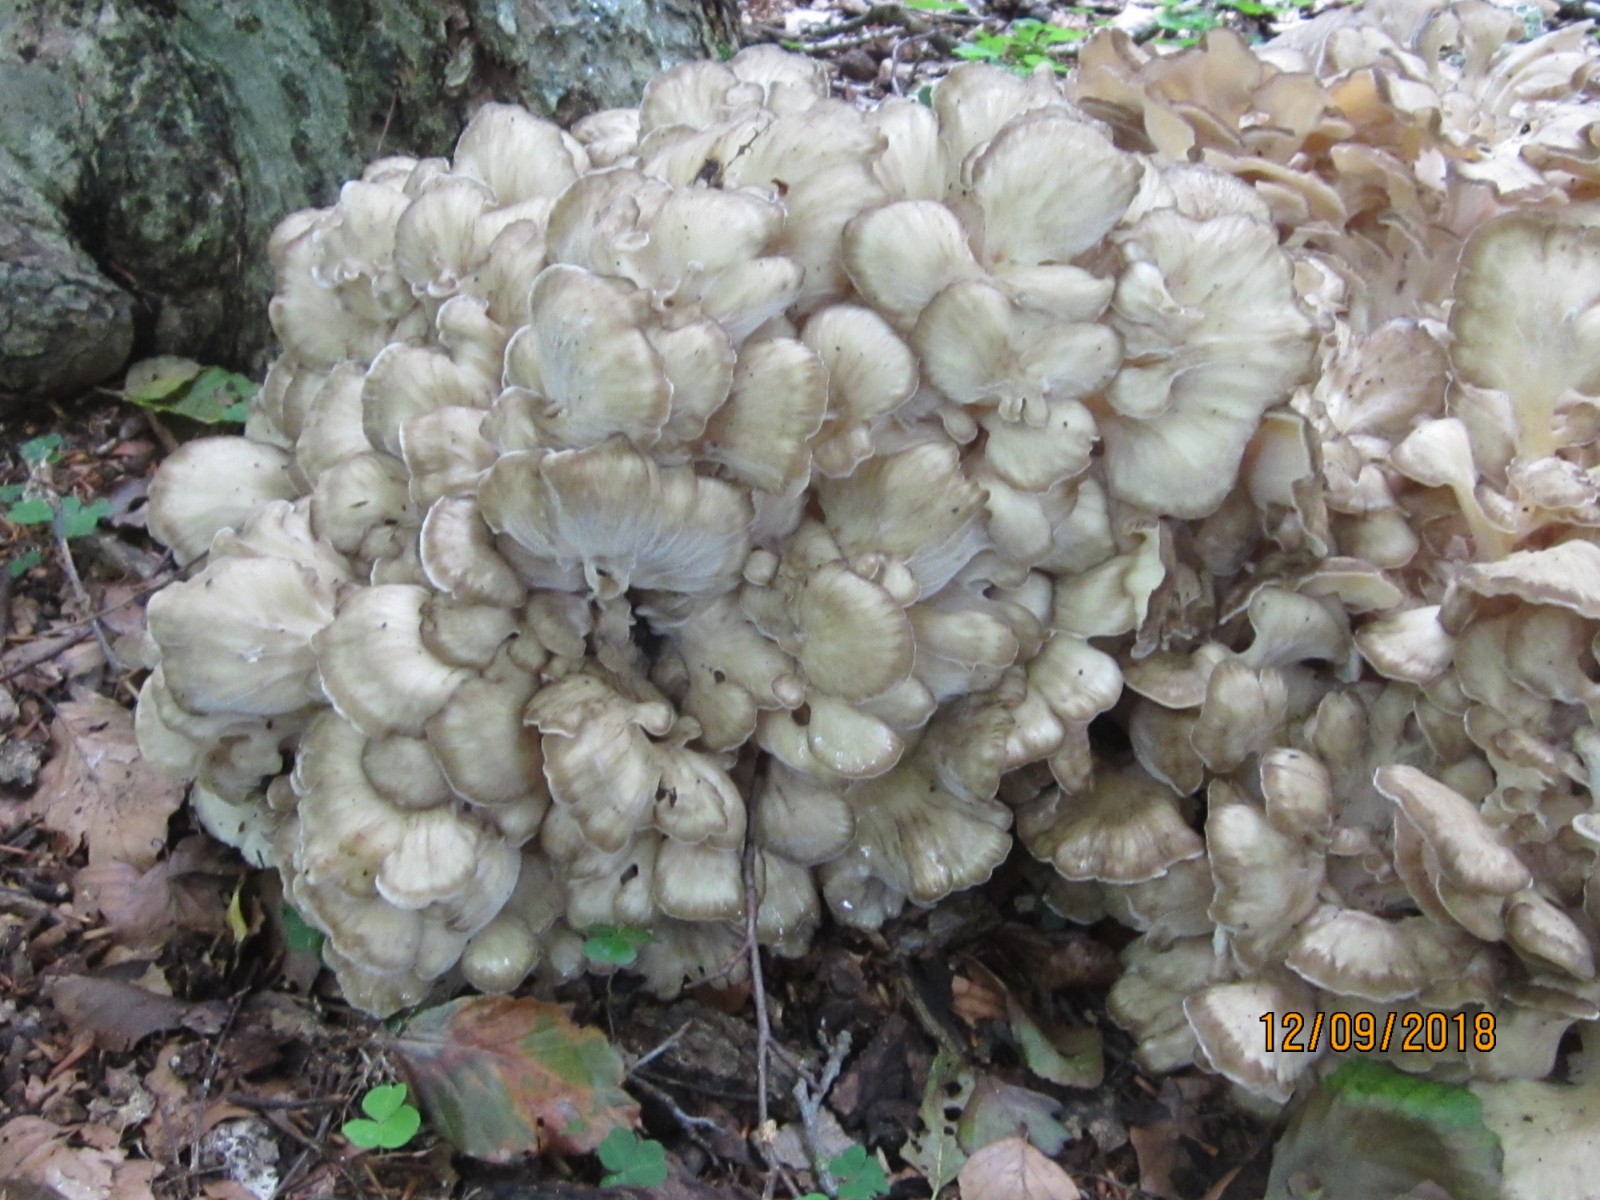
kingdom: Fungi
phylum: Basidiomycota
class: Agaricomycetes
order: Polyporales
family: Grifolaceae
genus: Grifola
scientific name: Grifola frondosa
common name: tueporesvamp
